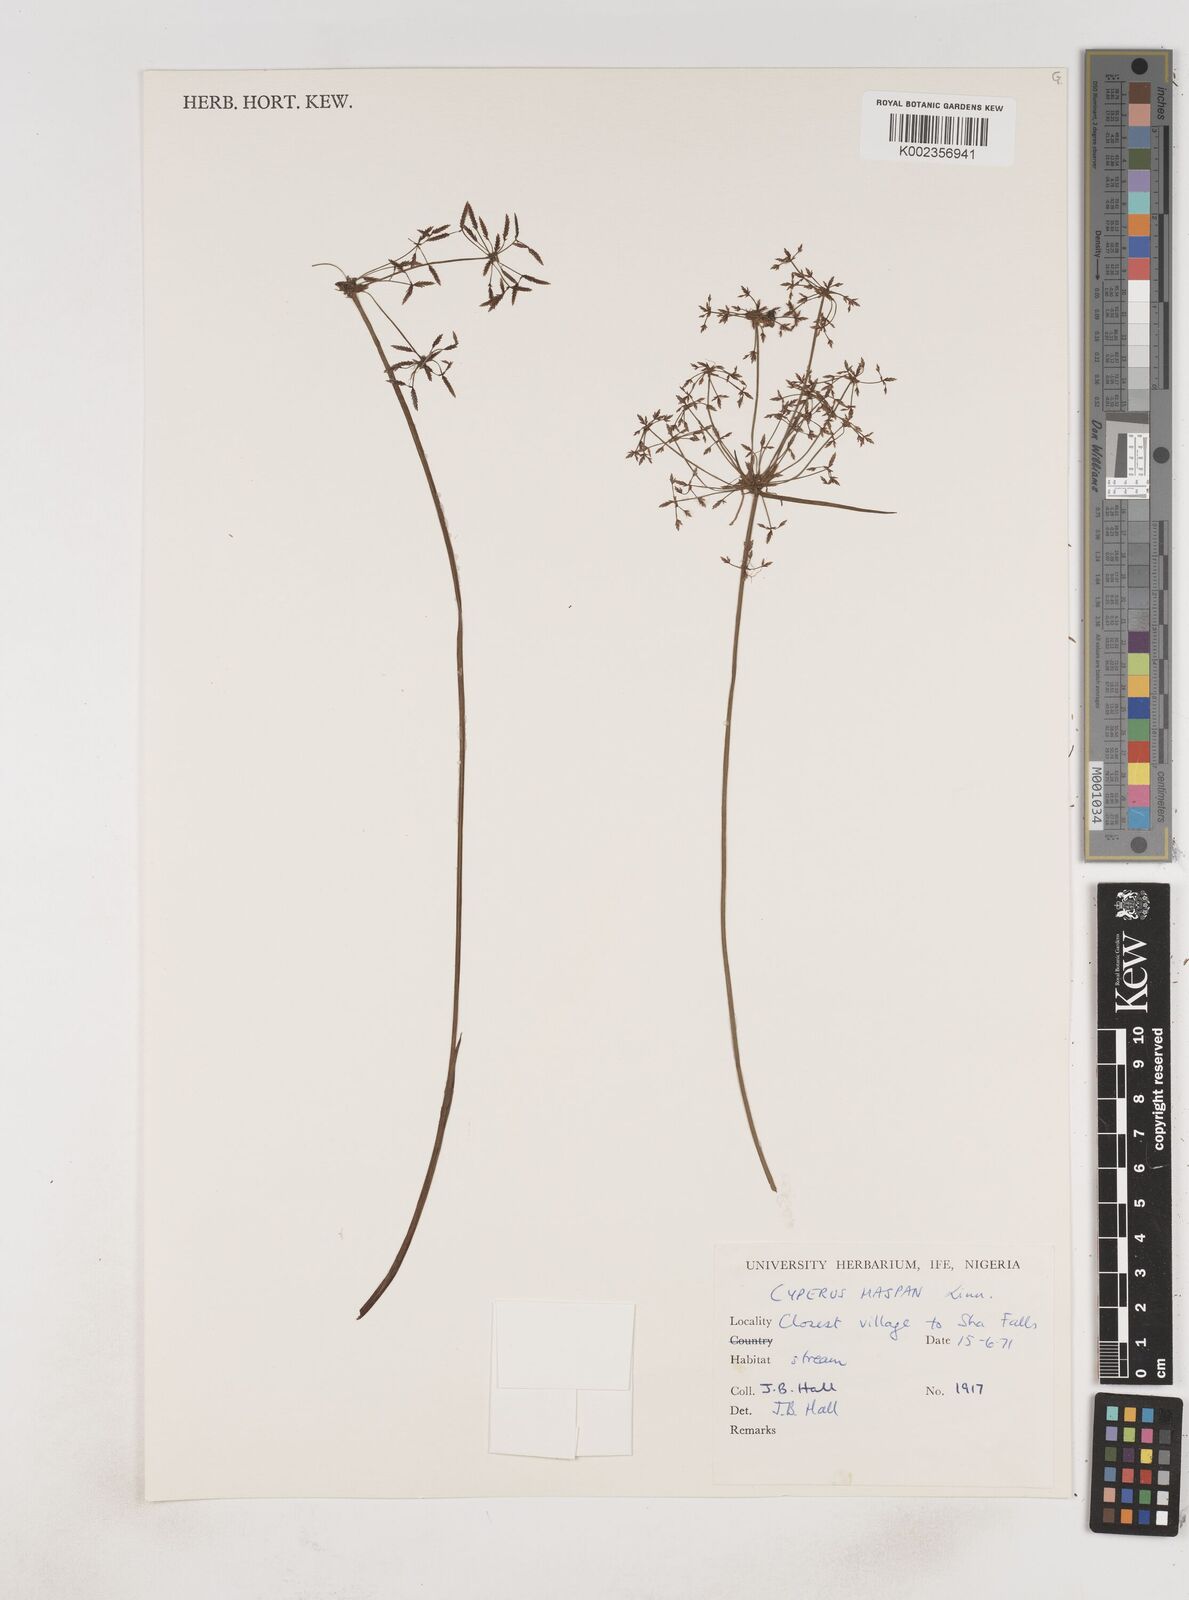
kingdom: Plantae
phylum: Tracheophyta
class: Liliopsida
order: Poales
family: Cyperaceae
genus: Cyperus
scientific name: Cyperus haspan
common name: Haspan flatsedge
